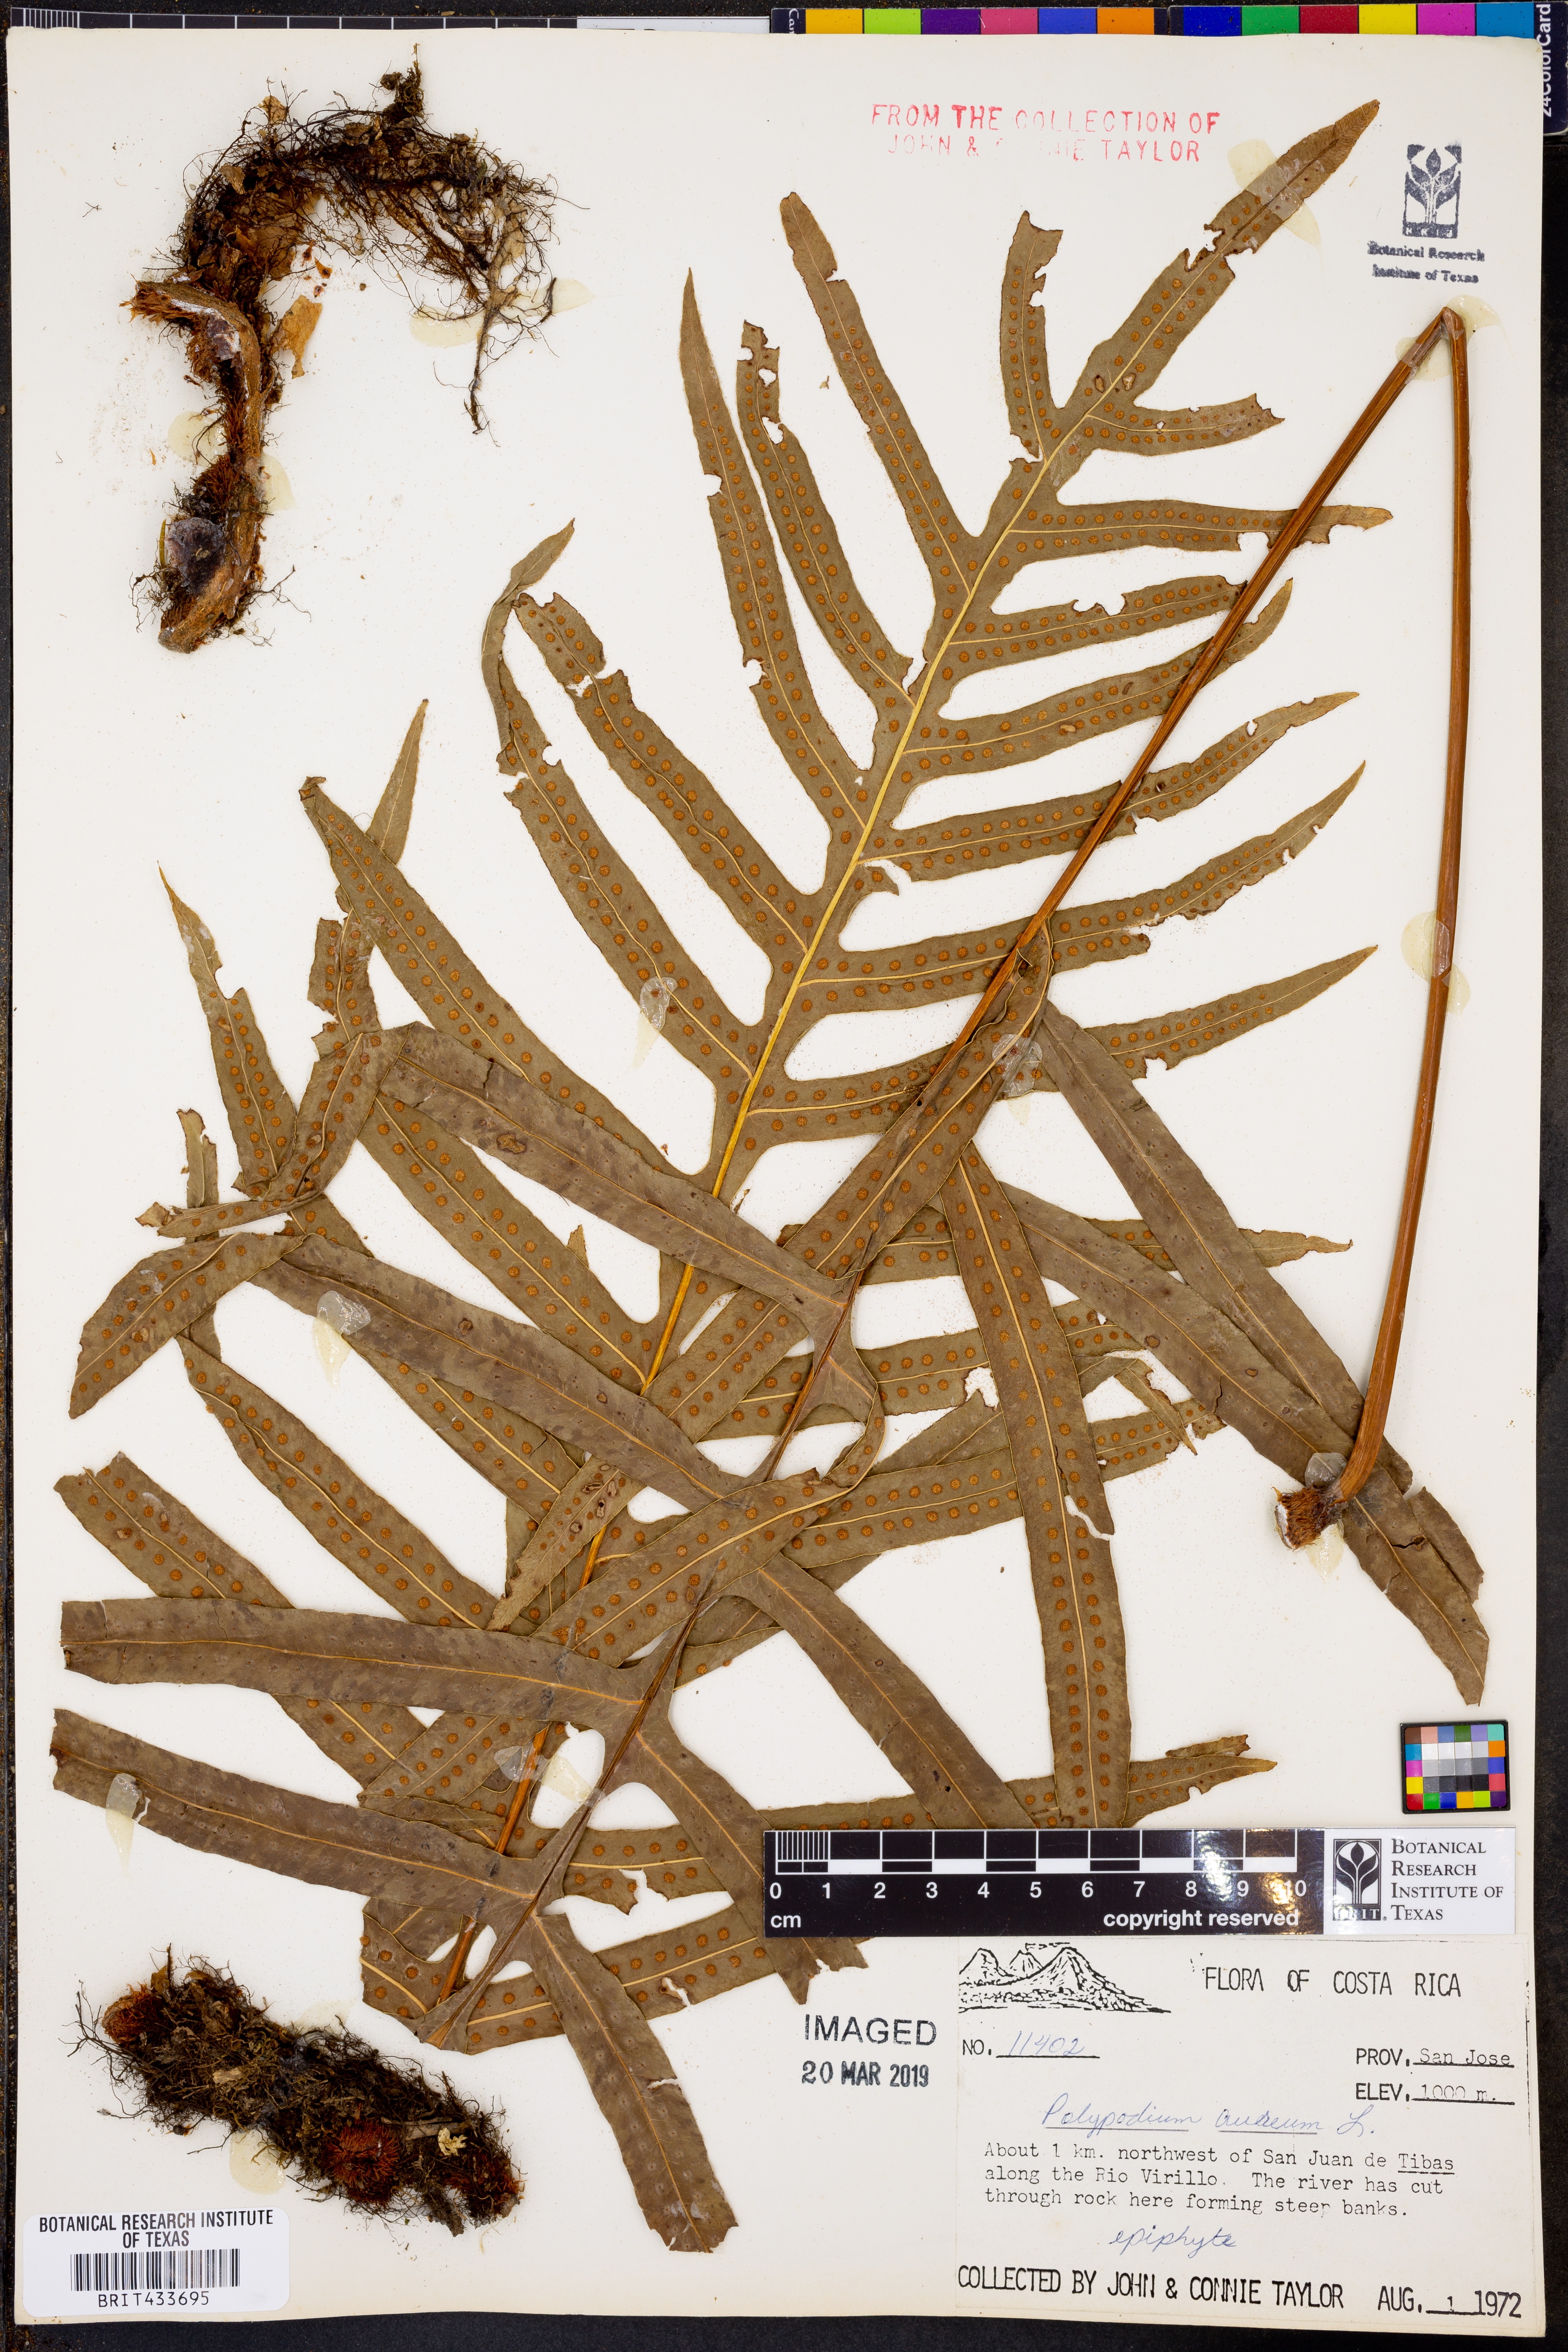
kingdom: Plantae
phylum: Tracheophyta
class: Polypodiopsida
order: Polypodiales
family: Polypodiaceae
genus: Phlebodium
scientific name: Phlebodium aureum
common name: Gold-foot fern
